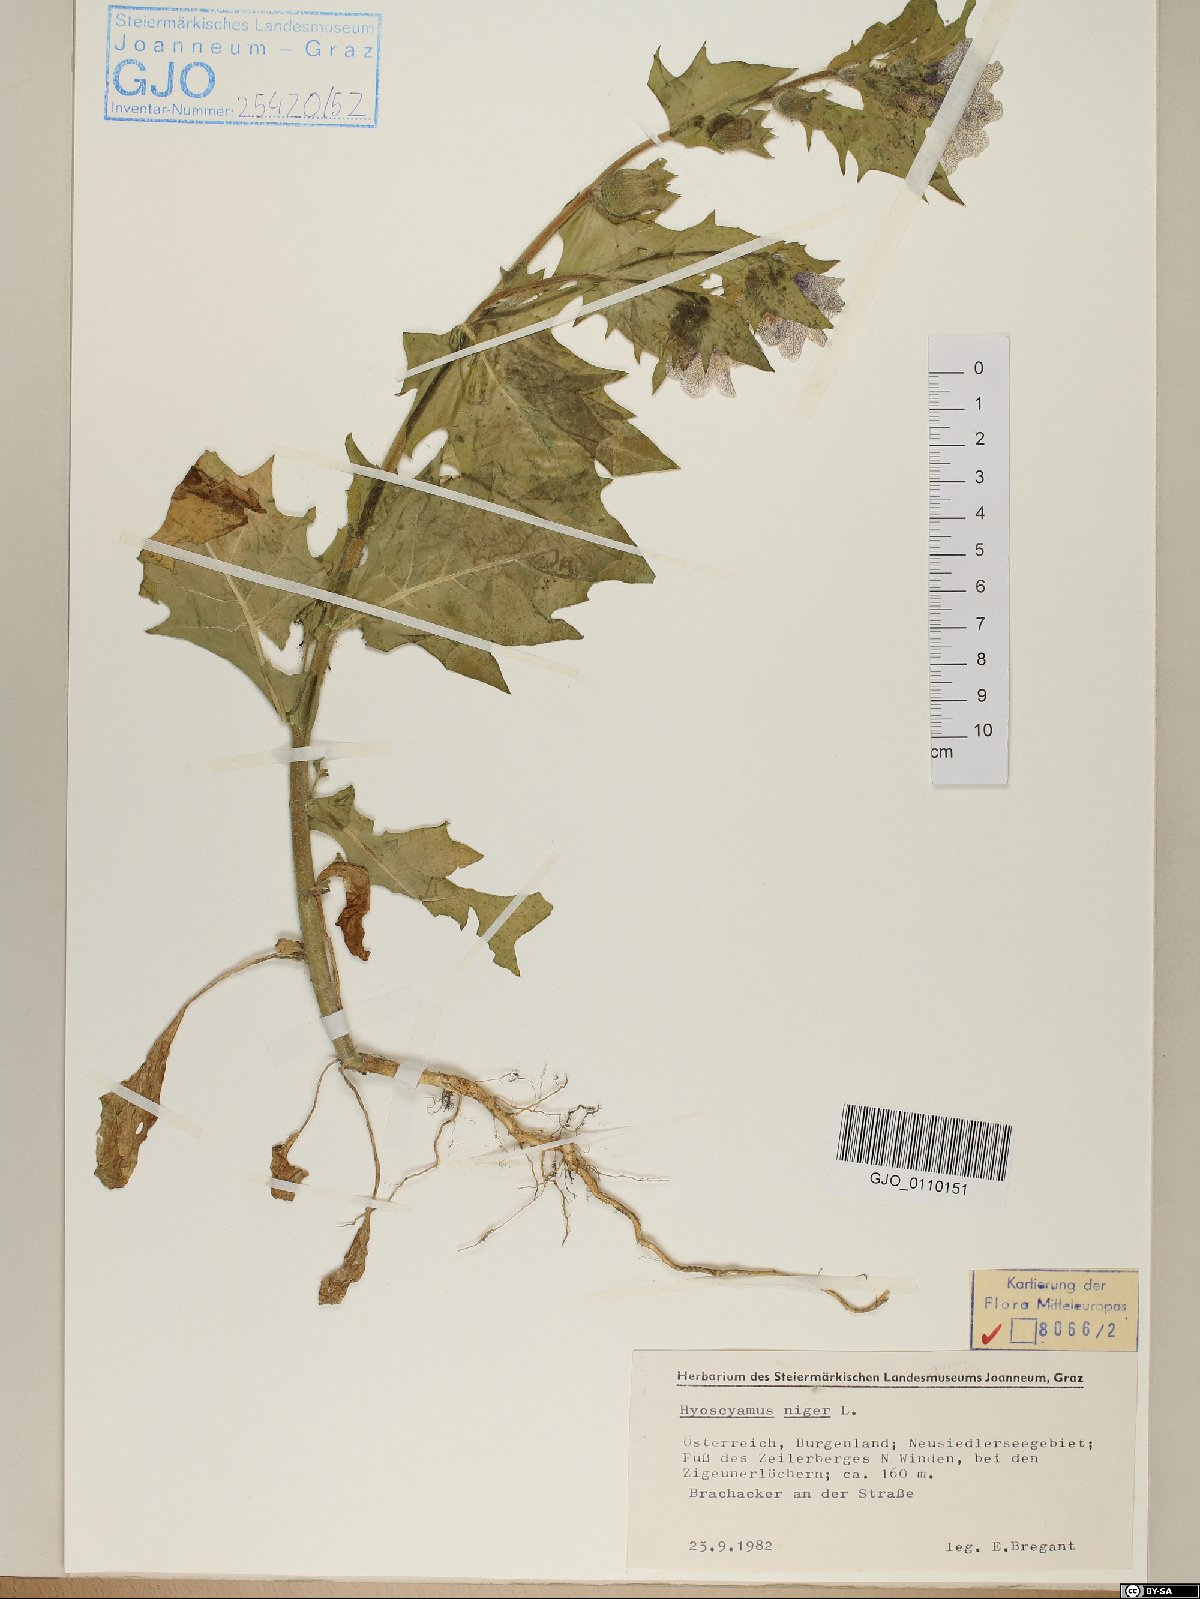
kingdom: Plantae
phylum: Tracheophyta
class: Magnoliopsida
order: Solanales
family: Solanaceae
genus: Hyoscyamus
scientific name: Hyoscyamus niger
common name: Henbane
